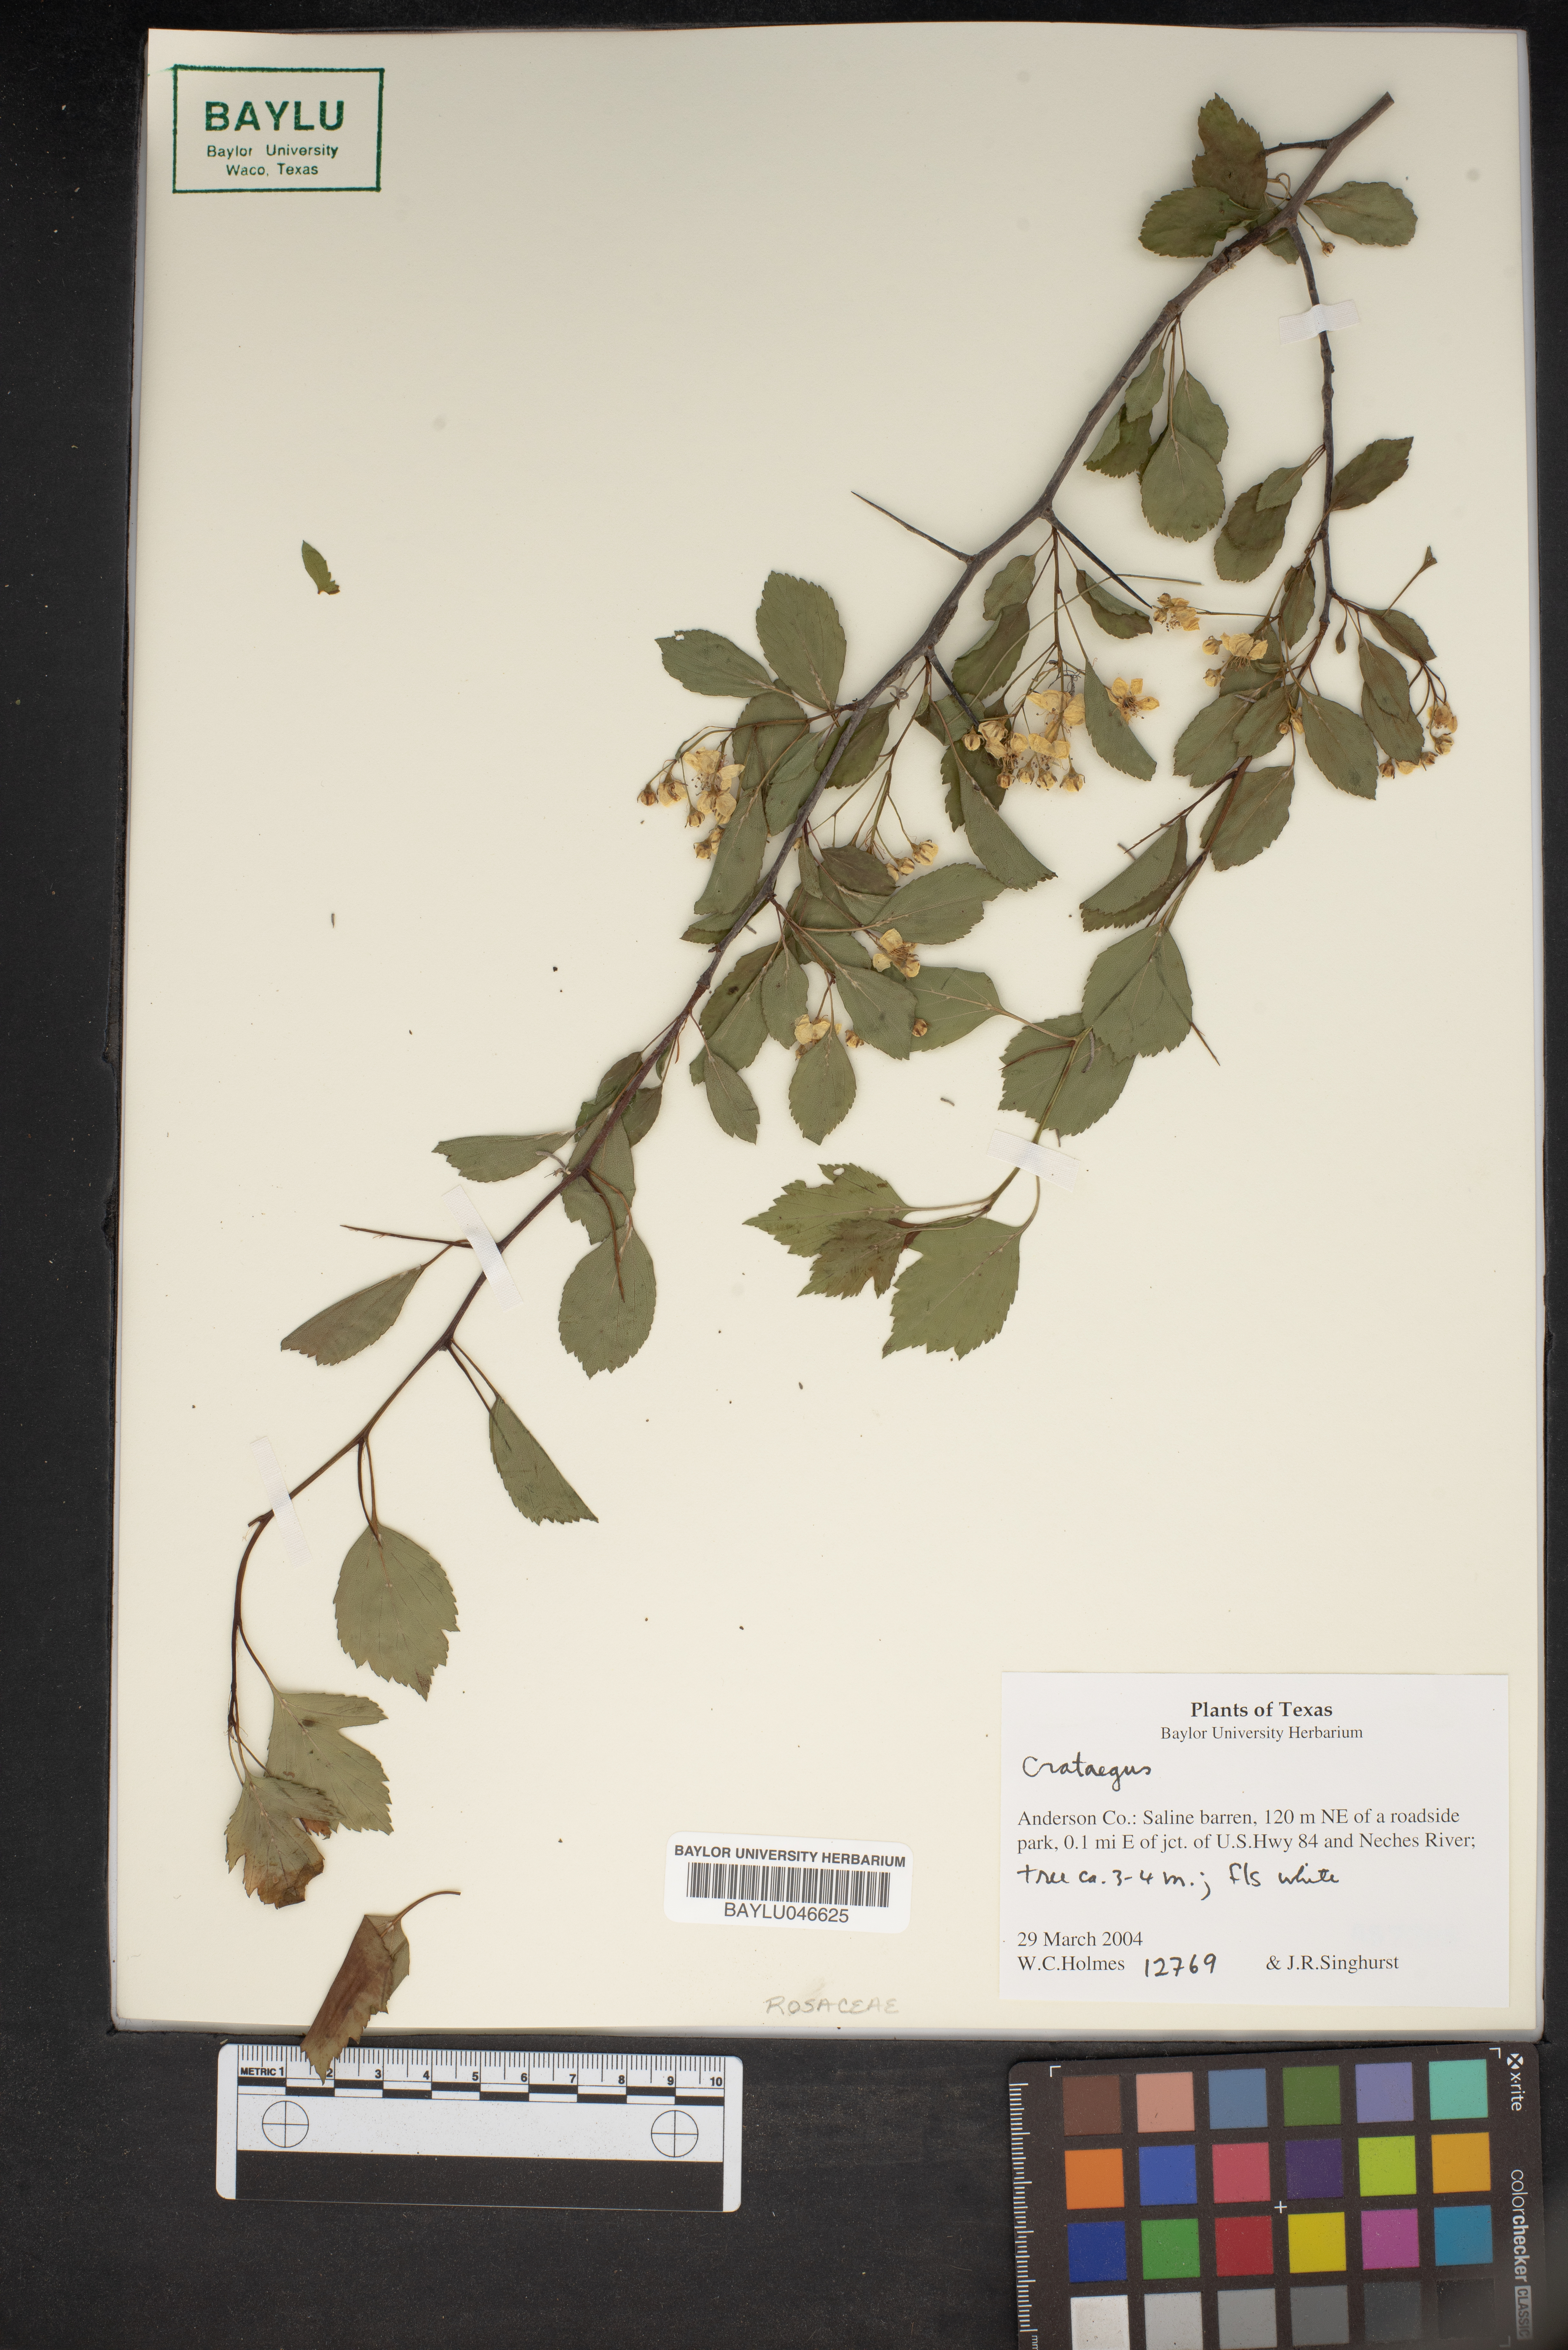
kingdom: Plantae
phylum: Tracheophyta
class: Magnoliopsida
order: Rosales
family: Rosaceae
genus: Crataegus
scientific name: Crataegus
